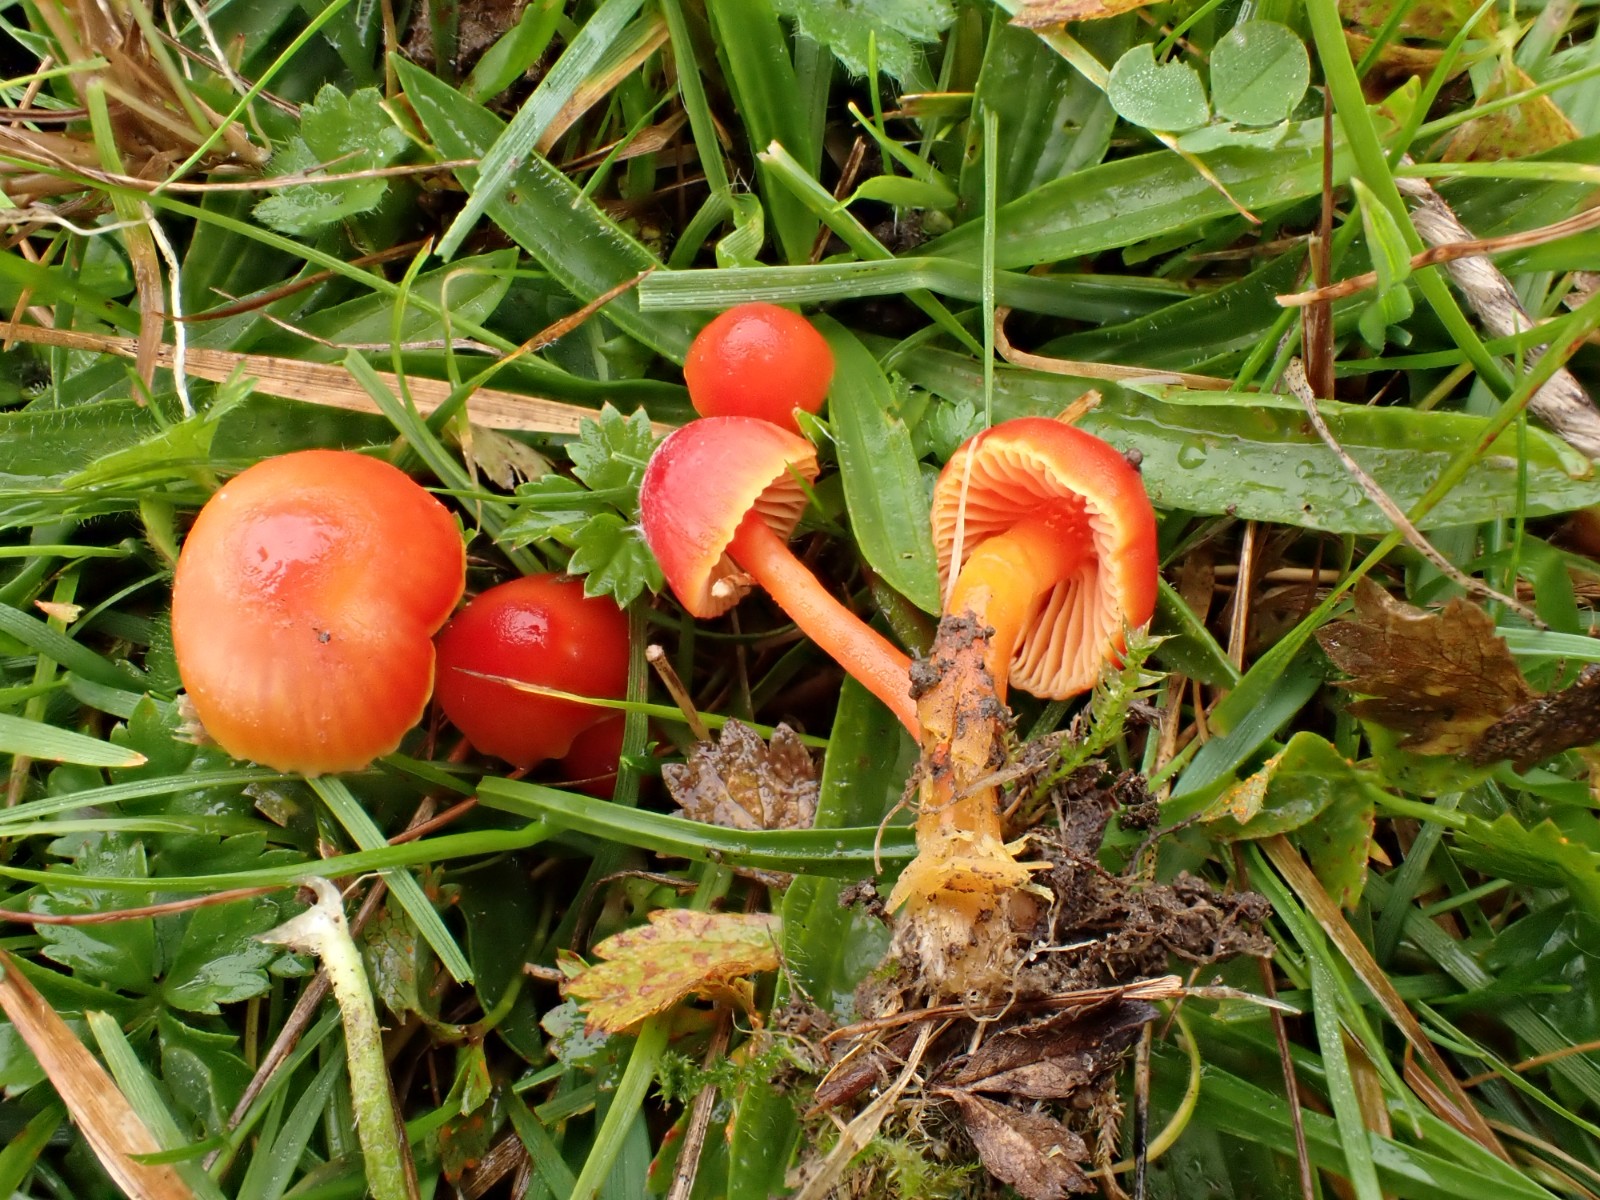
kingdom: Fungi
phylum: Basidiomycota
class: Agaricomycetes
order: Agaricales
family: Hygrophoraceae
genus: Hygrocybe
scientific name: Hygrocybe mucronella
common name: bitter vokshat
